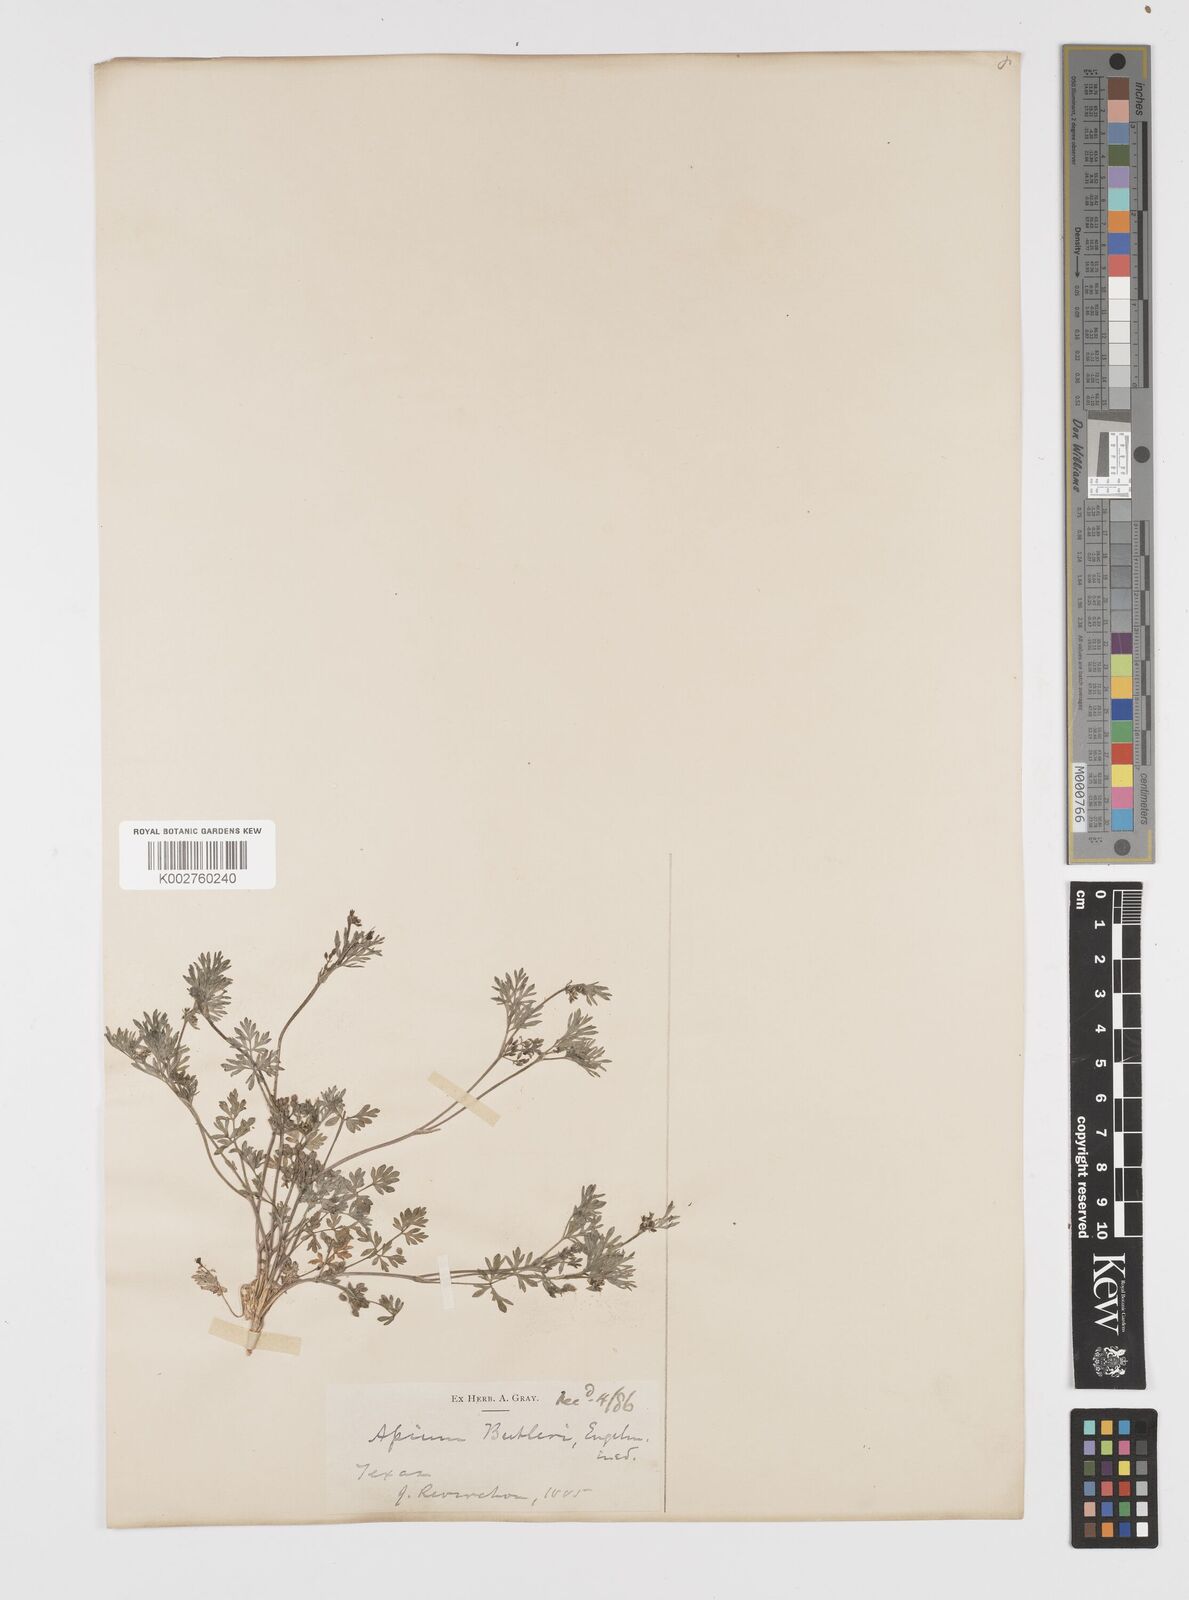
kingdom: Plantae
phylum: Tracheophyta
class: Magnoliopsida
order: Apiales
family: Apiaceae
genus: Ammoselinum
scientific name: Ammoselinum butleri
